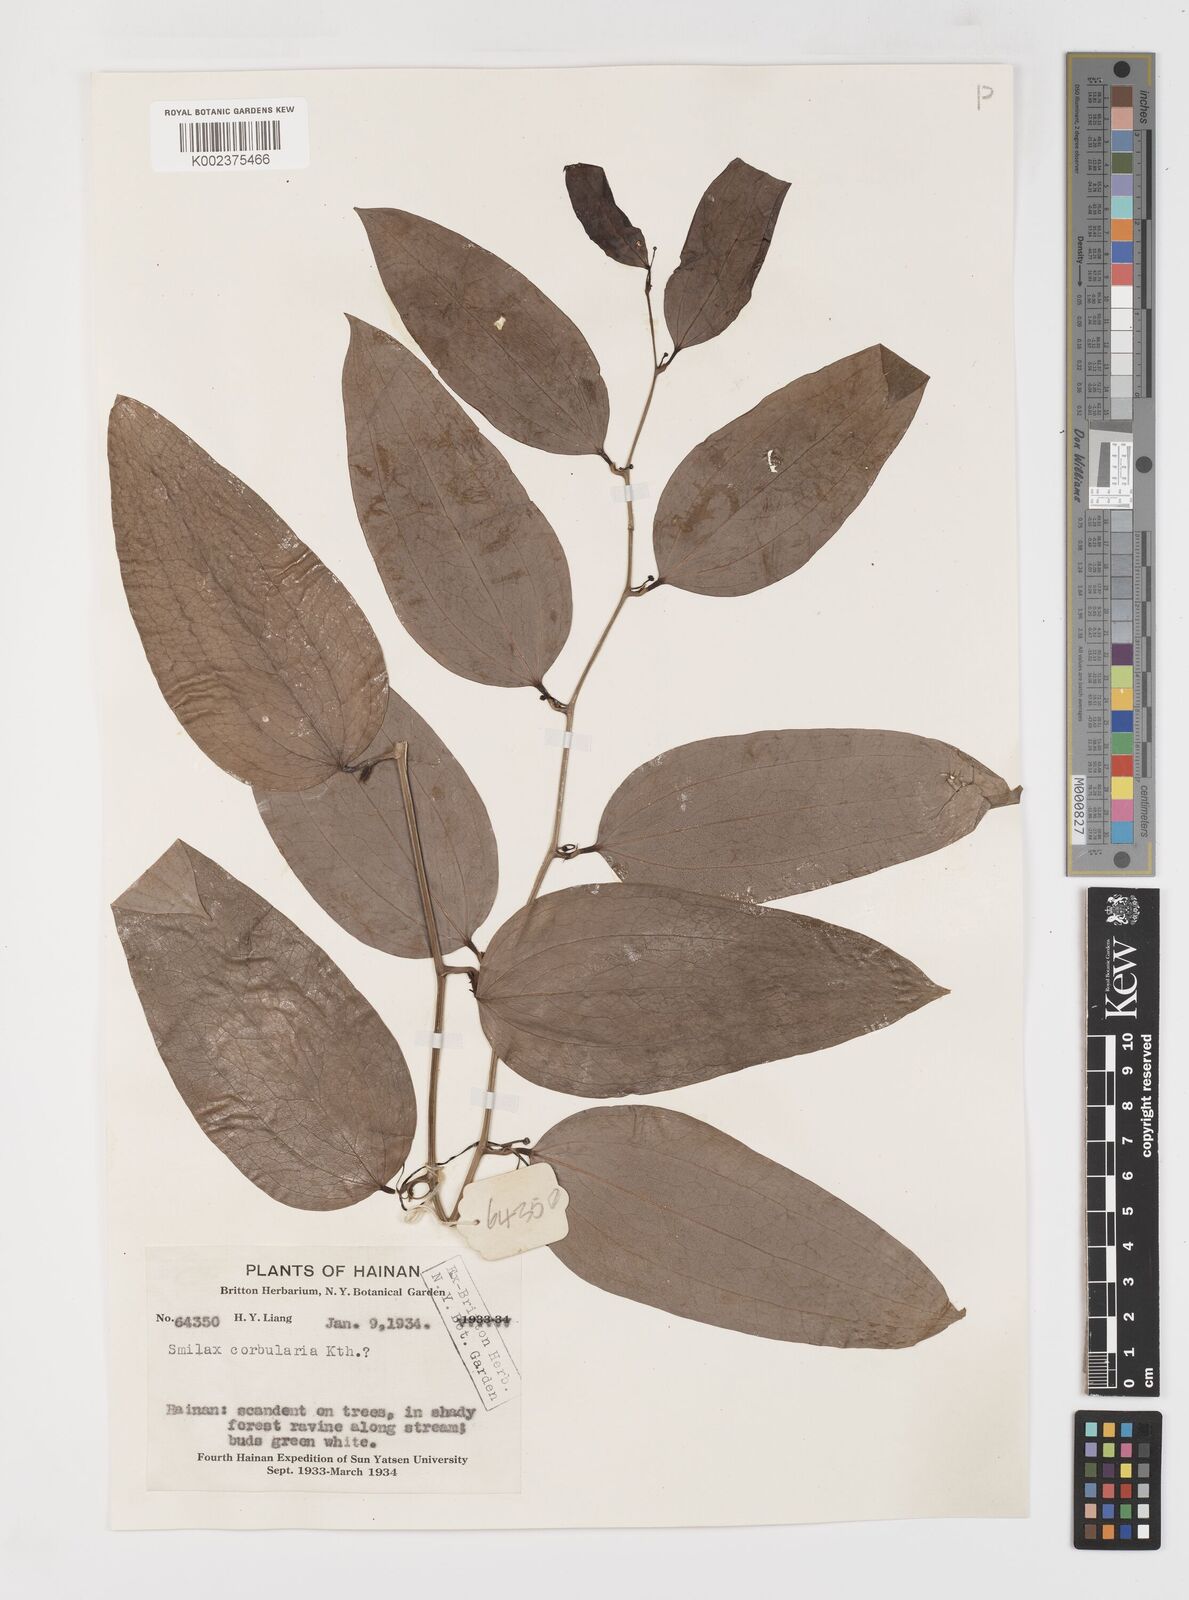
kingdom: Plantae
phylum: Tracheophyta
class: Liliopsida
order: Liliales
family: Smilacaceae
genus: Smilax
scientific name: Smilax hypoglauca
